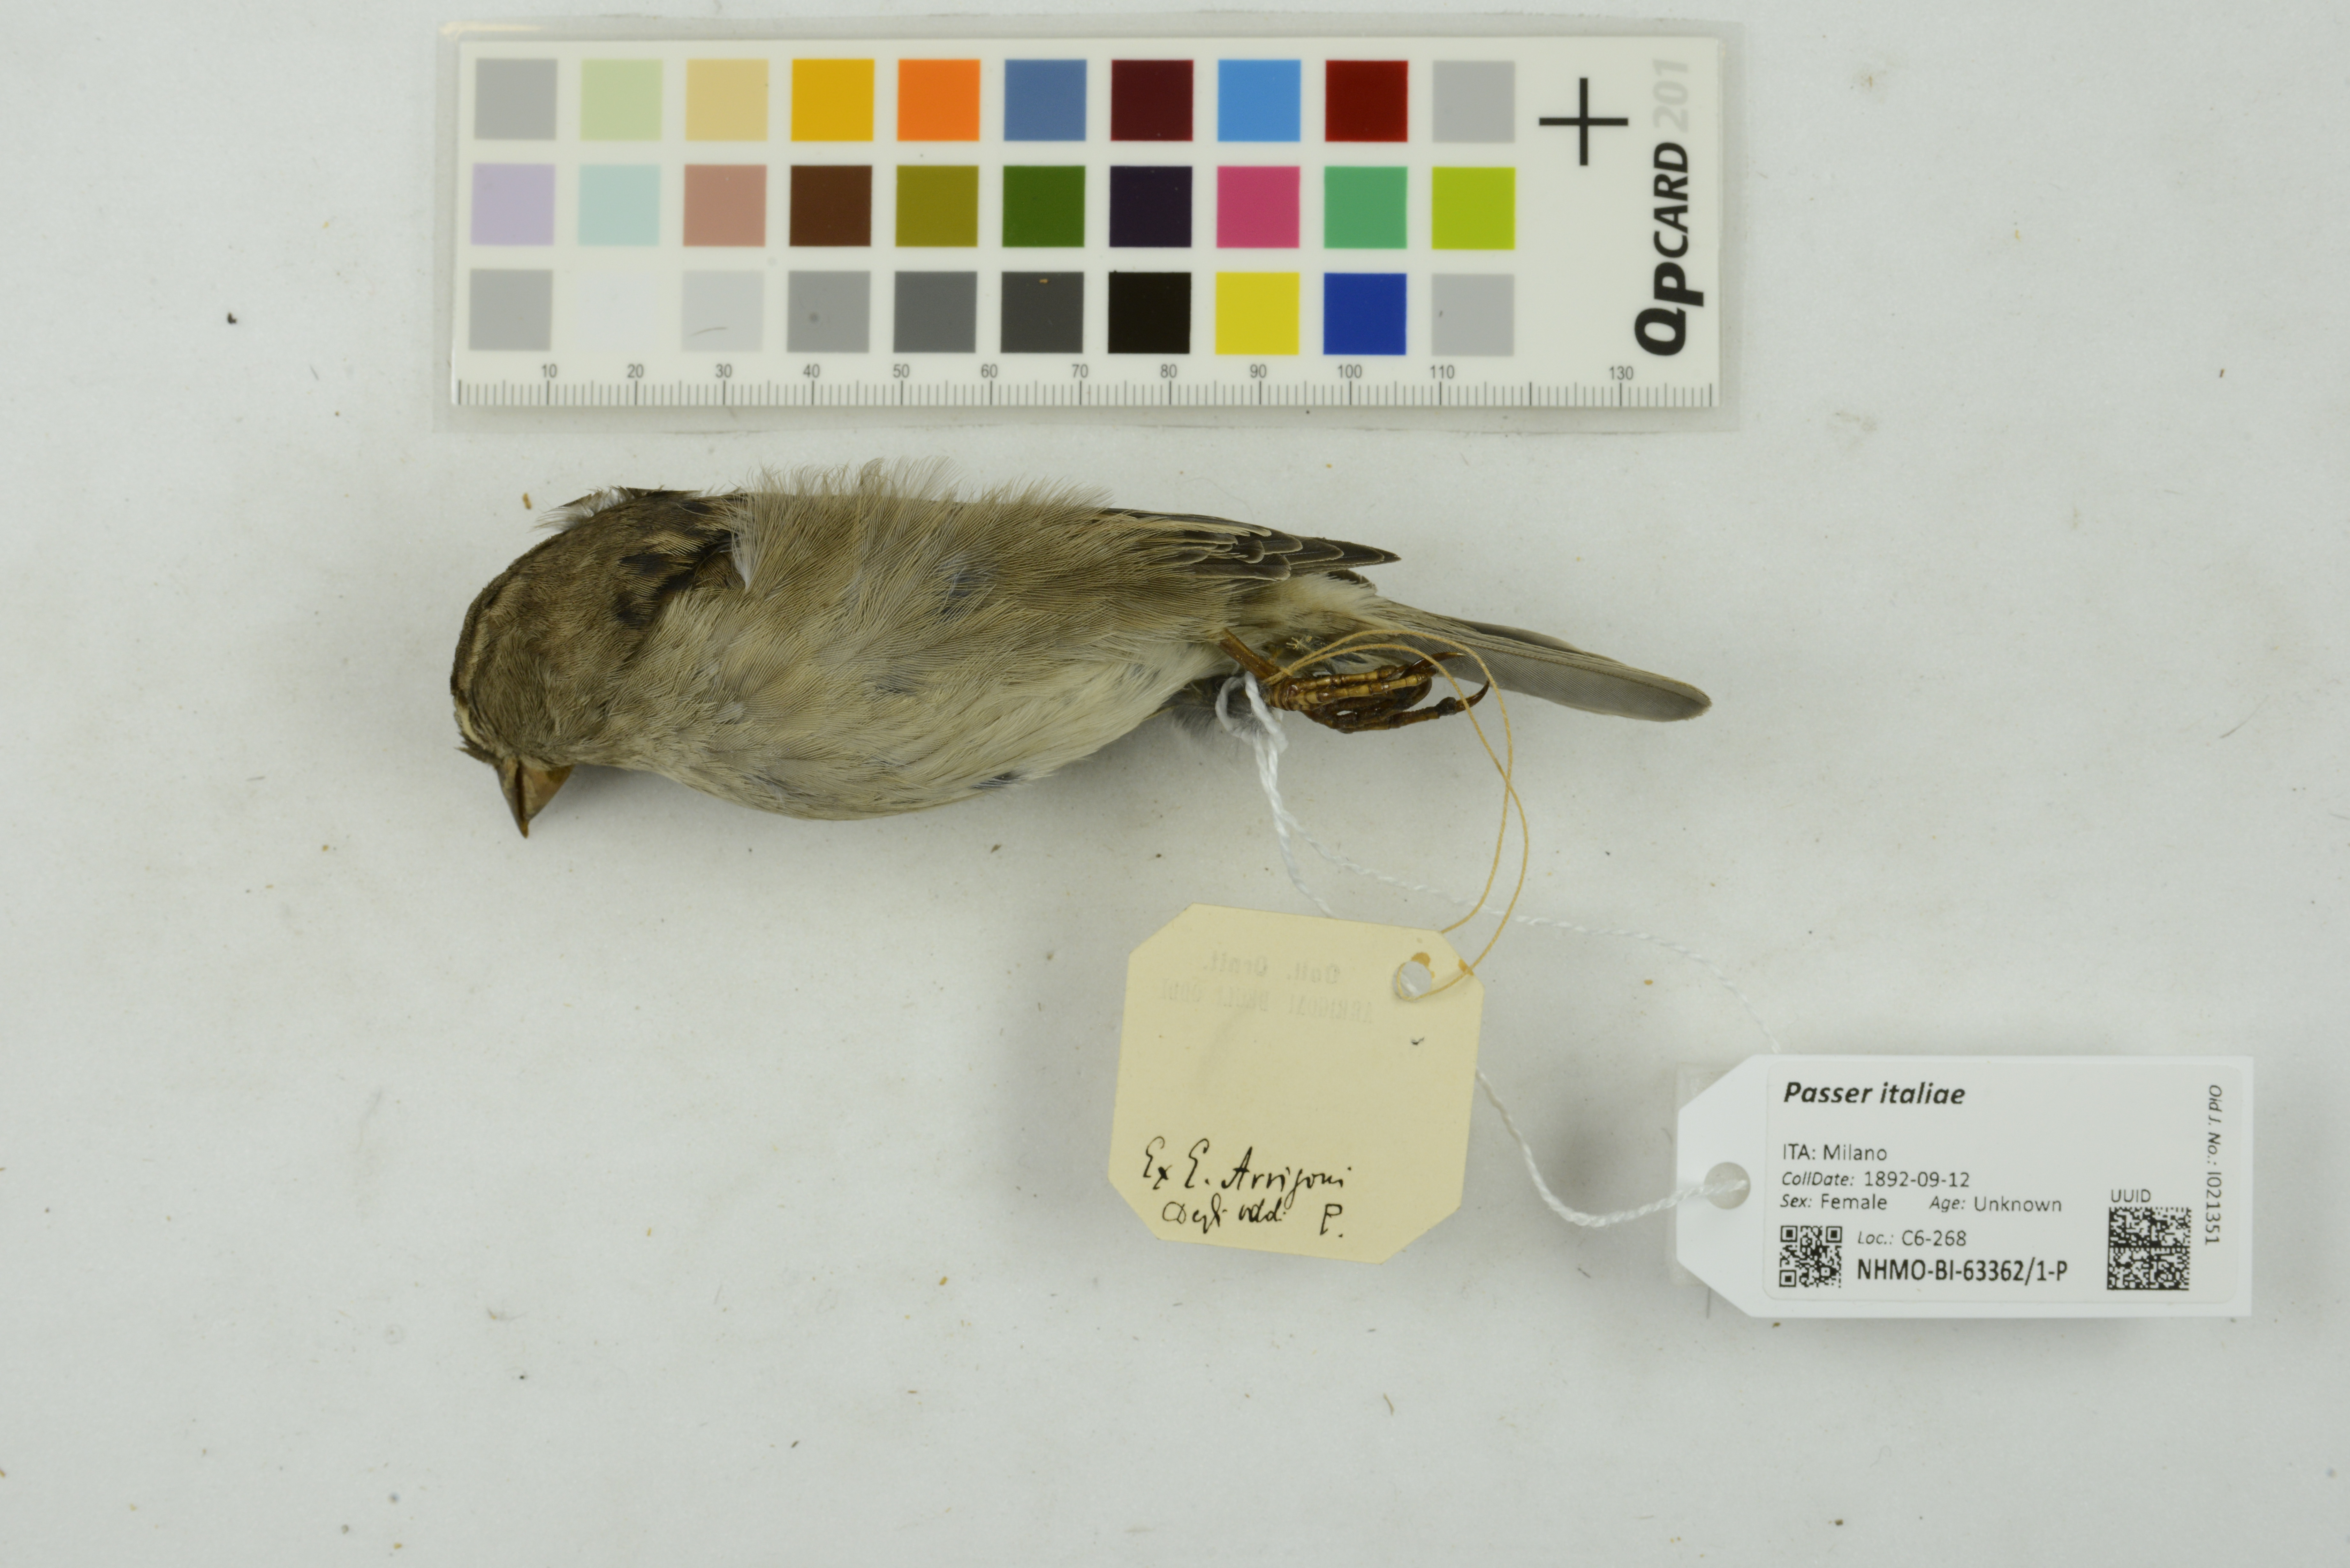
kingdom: Animalia
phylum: Chordata
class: Aves
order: Passeriformes
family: Passeridae
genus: Passer
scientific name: Passer italiae
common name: Italian sparrow
